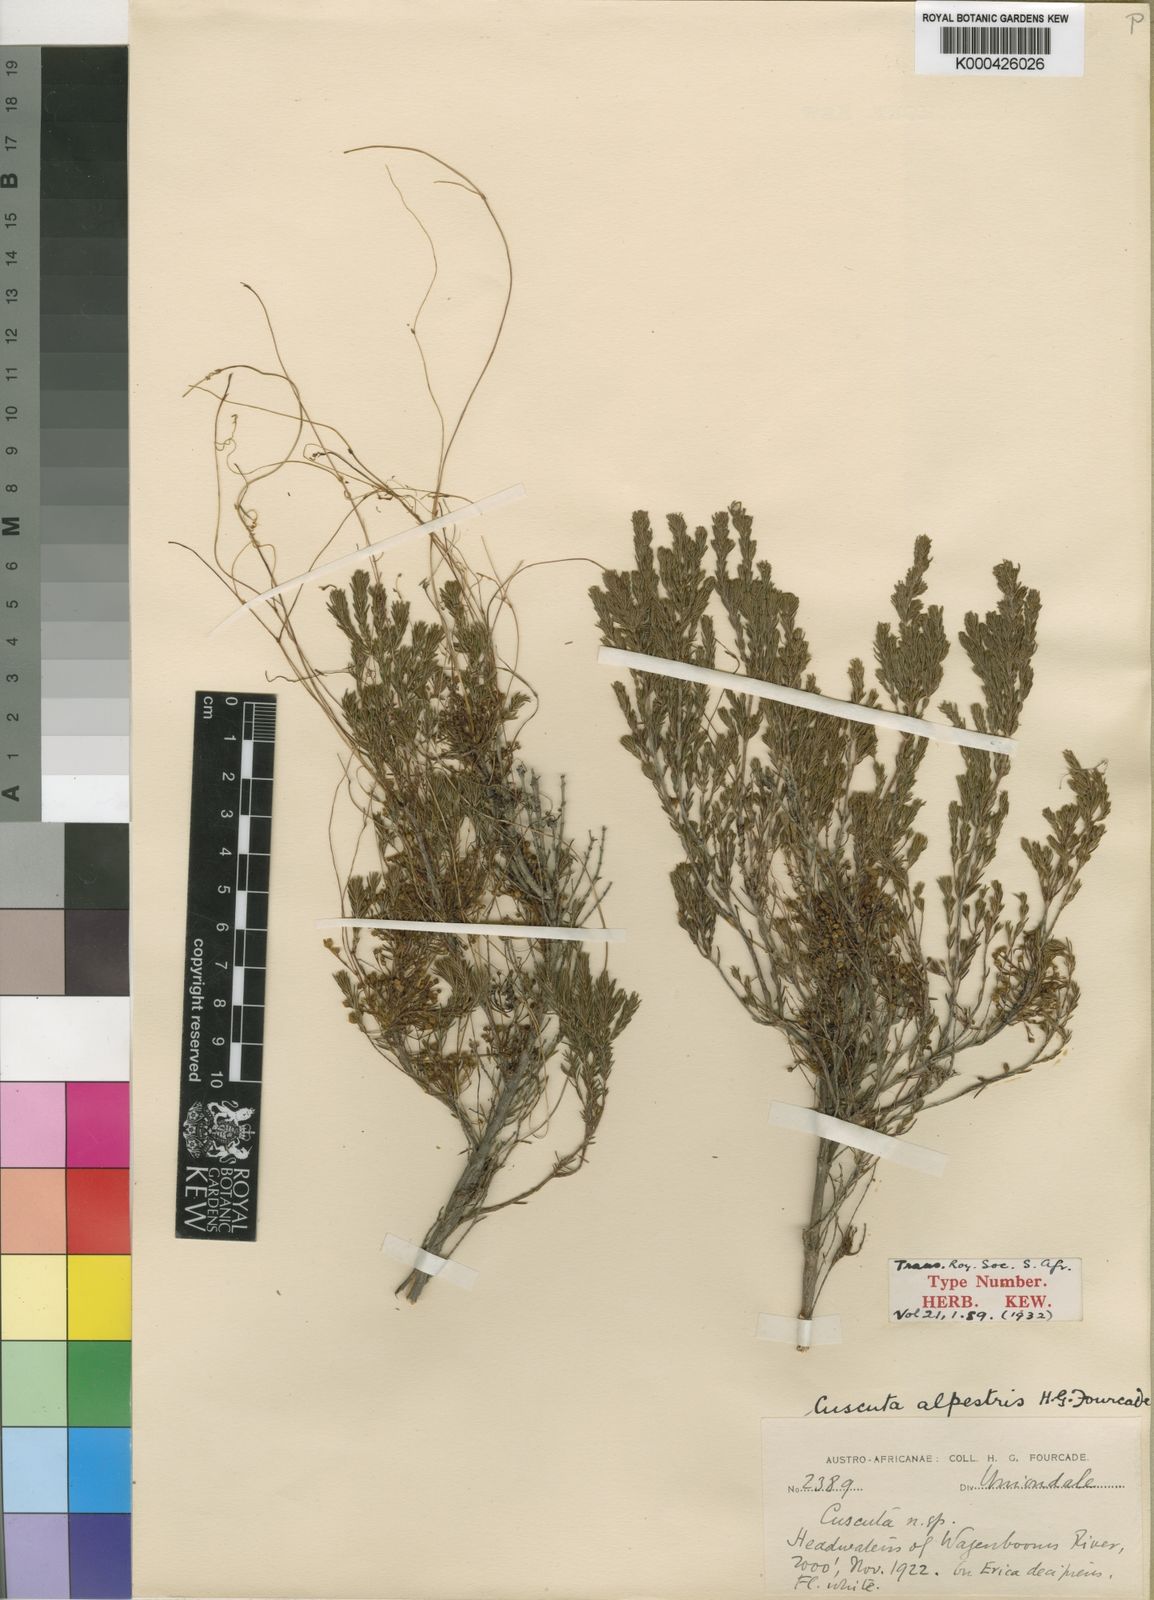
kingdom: Plantae
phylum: Tracheophyta
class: Magnoliopsida
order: Solanales
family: Convolvulaceae
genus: Cuscuta
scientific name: Cuscuta africana
